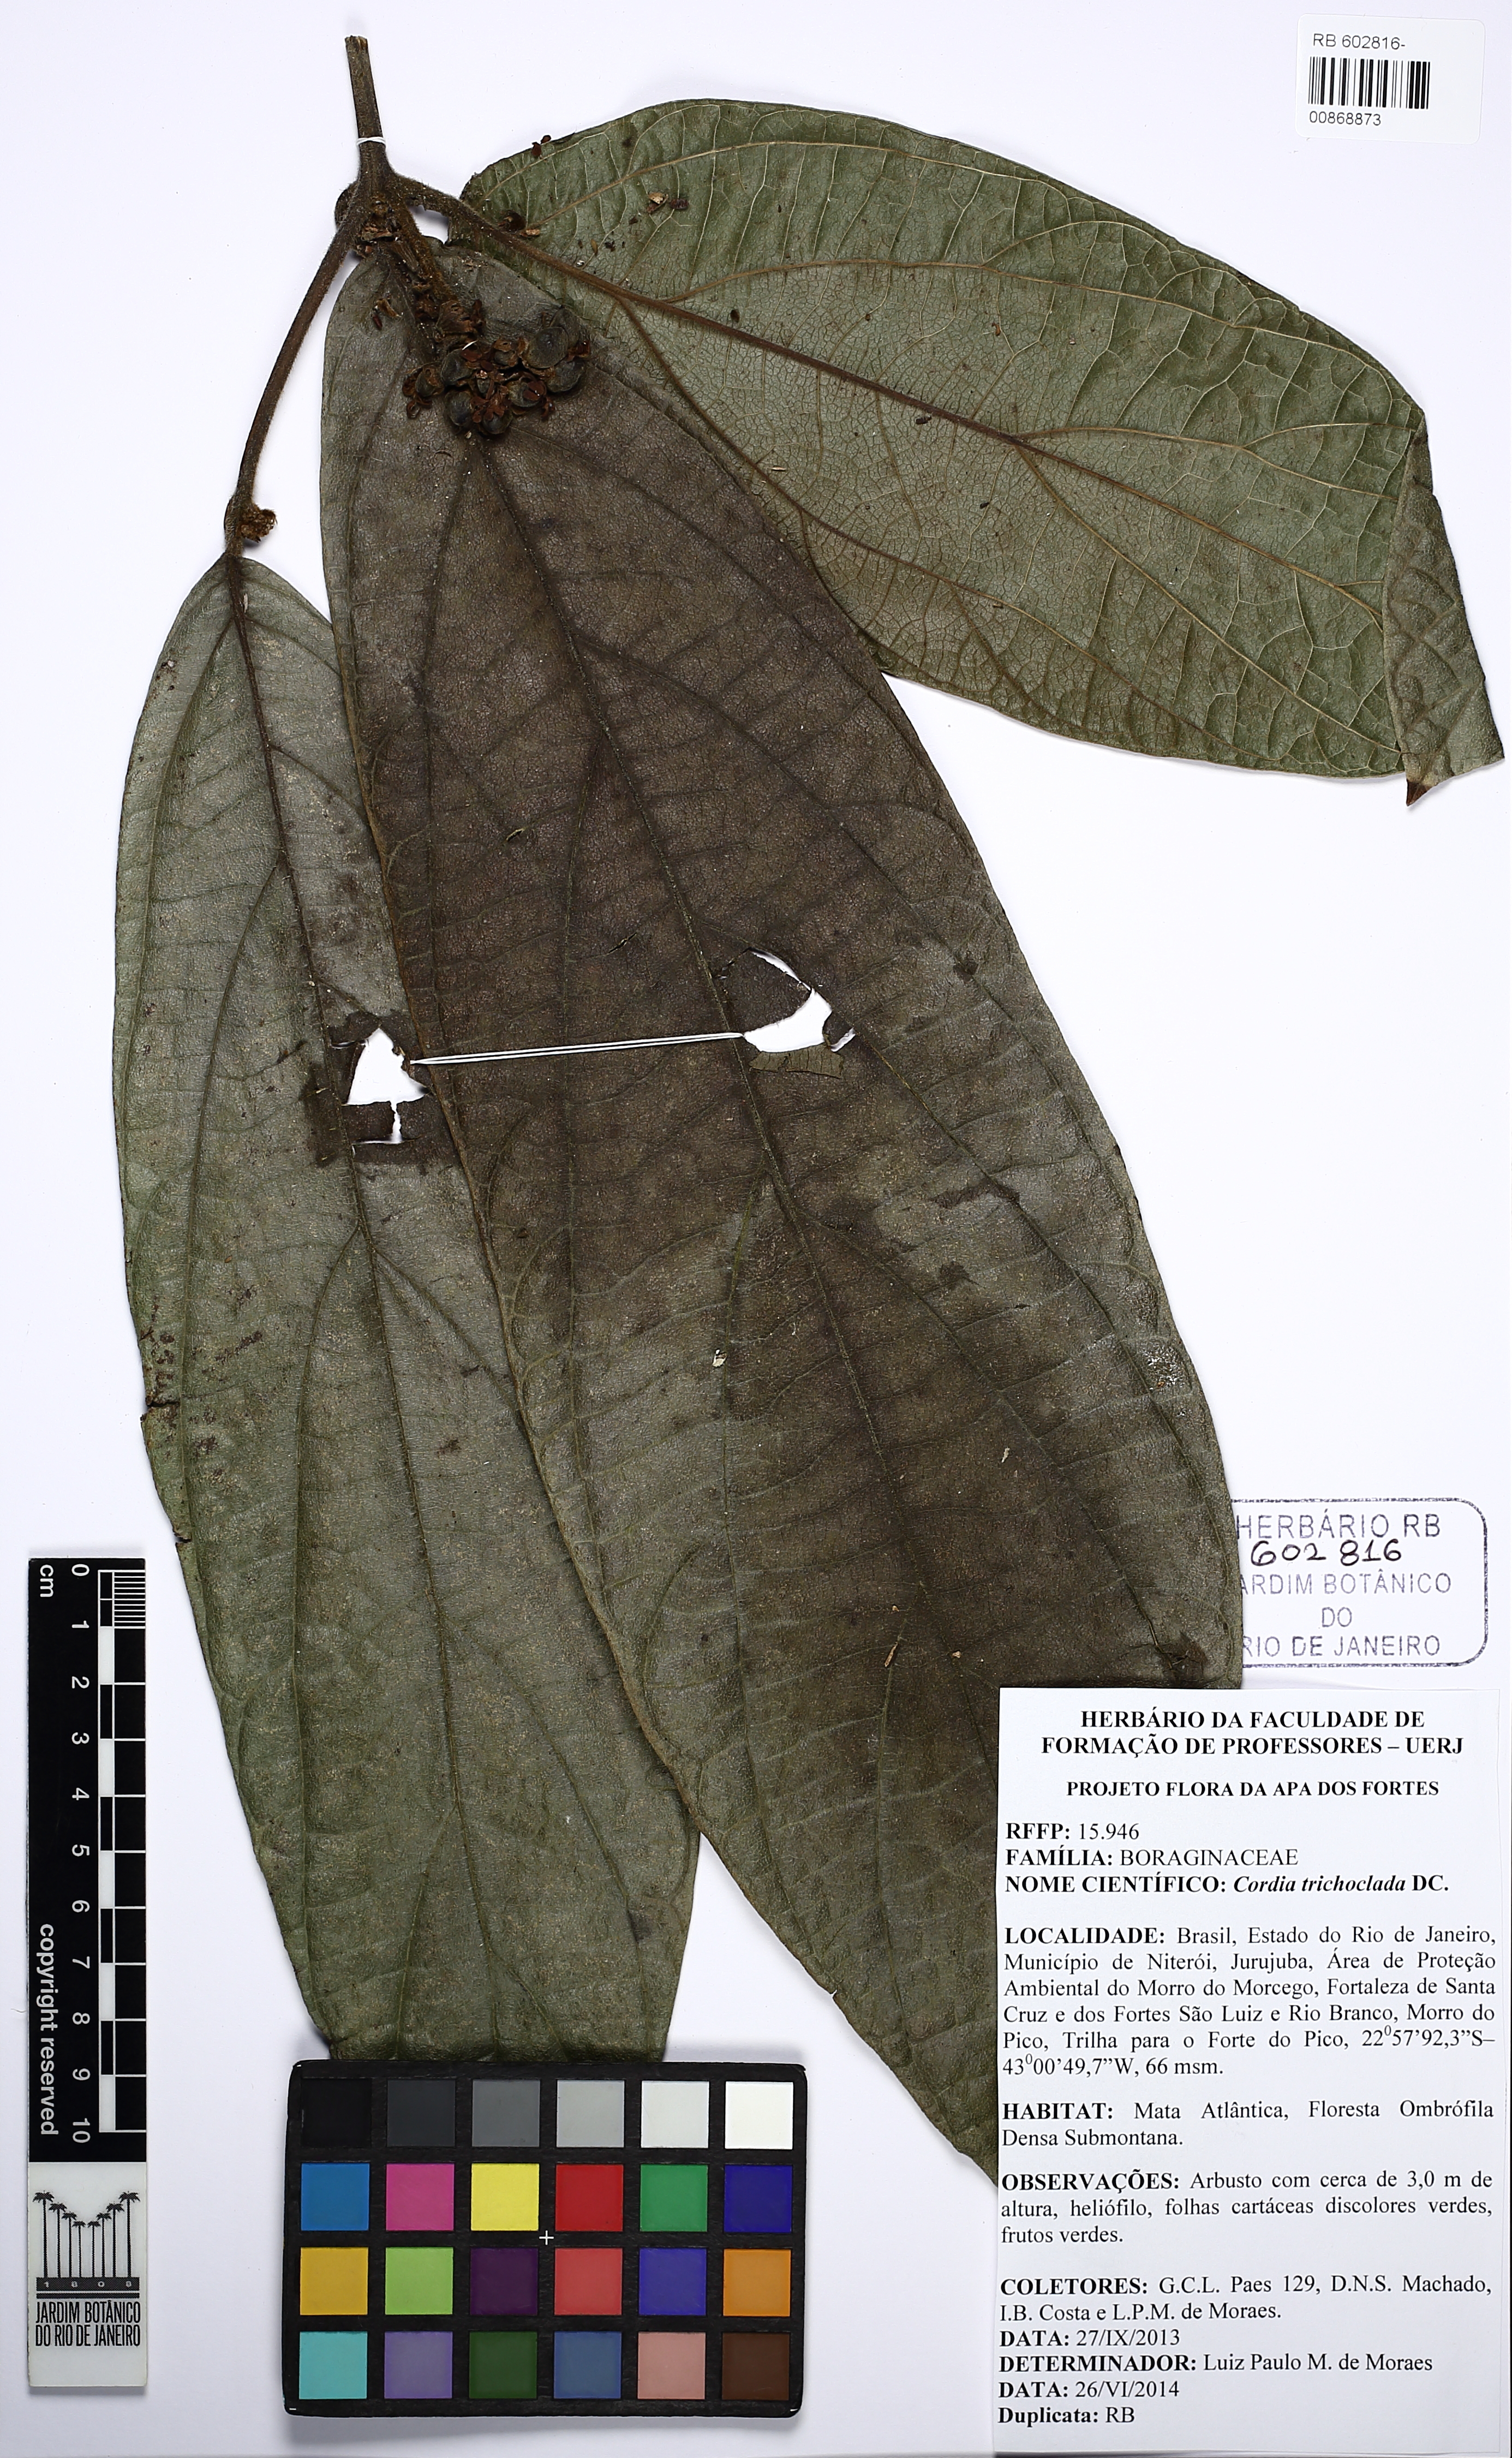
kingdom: Plantae
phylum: Tracheophyta
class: Magnoliopsida
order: Boraginales
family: Cordiaceae
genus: Cordia
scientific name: Cordia trichoclada
